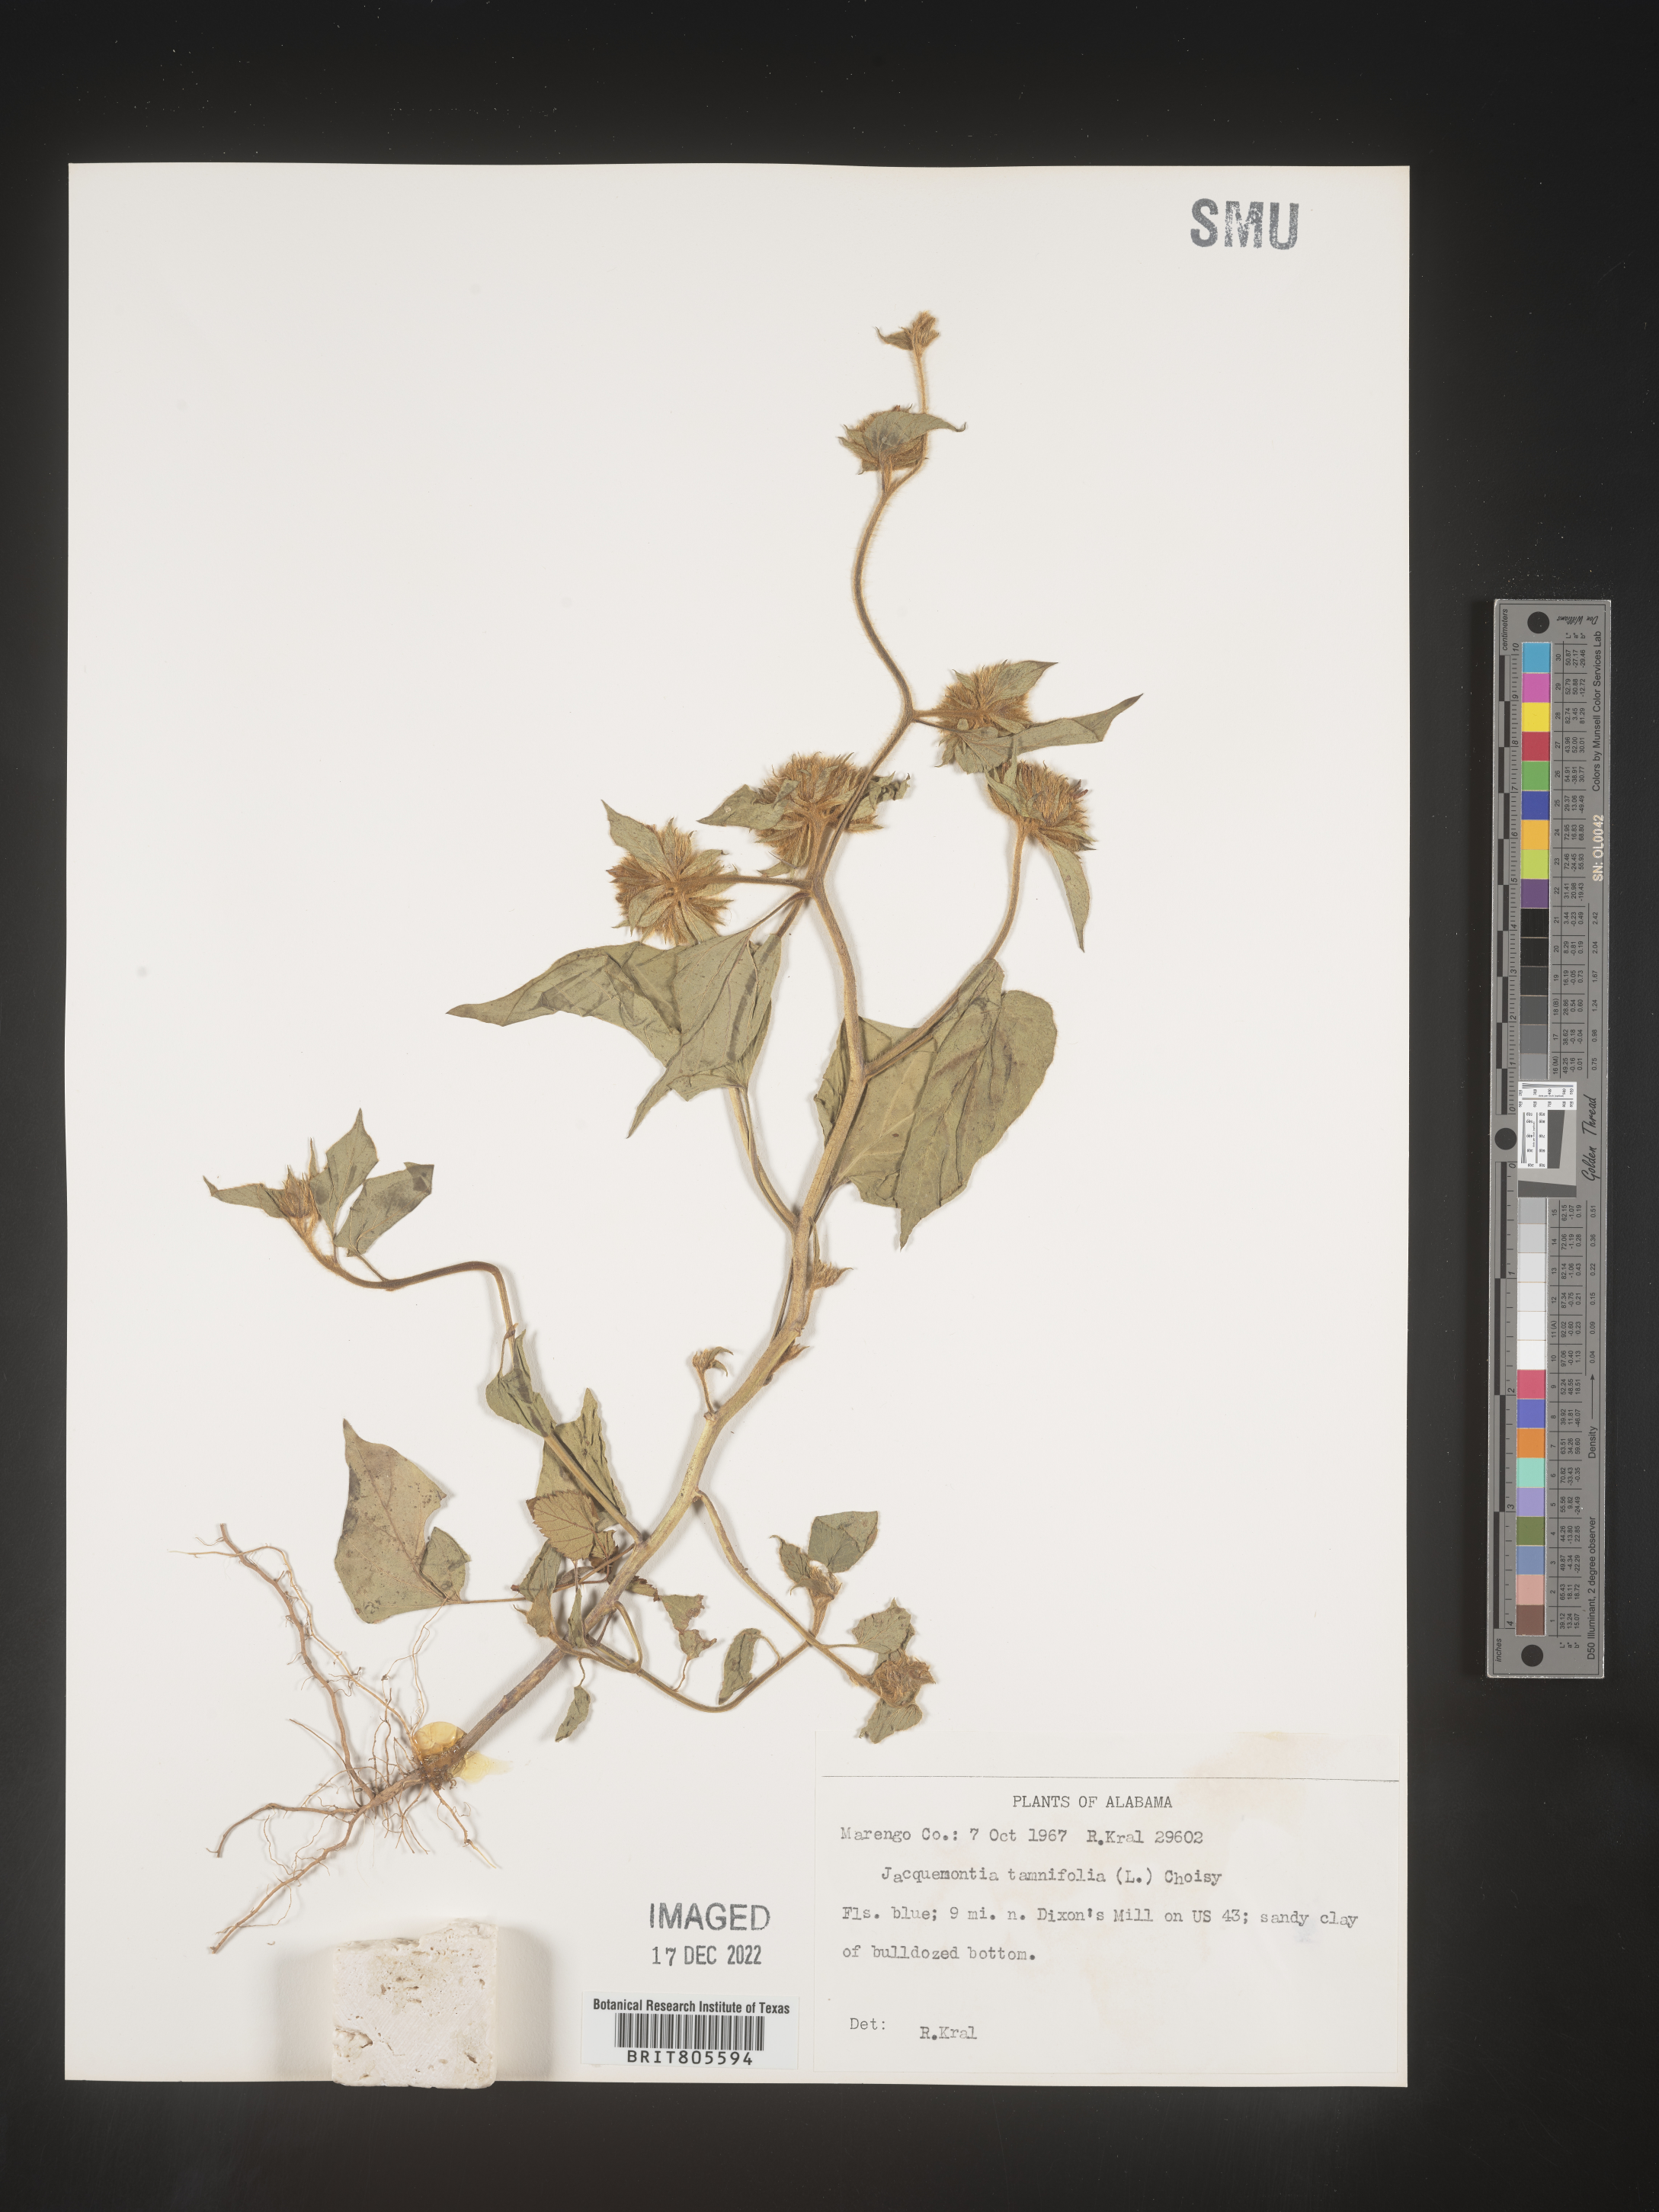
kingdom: Plantae
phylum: Tracheophyta
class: Magnoliopsida
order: Solanales
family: Convolvulaceae
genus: Jacquemontia
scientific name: Jacquemontia tamnifolia
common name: Hairy clustervine
